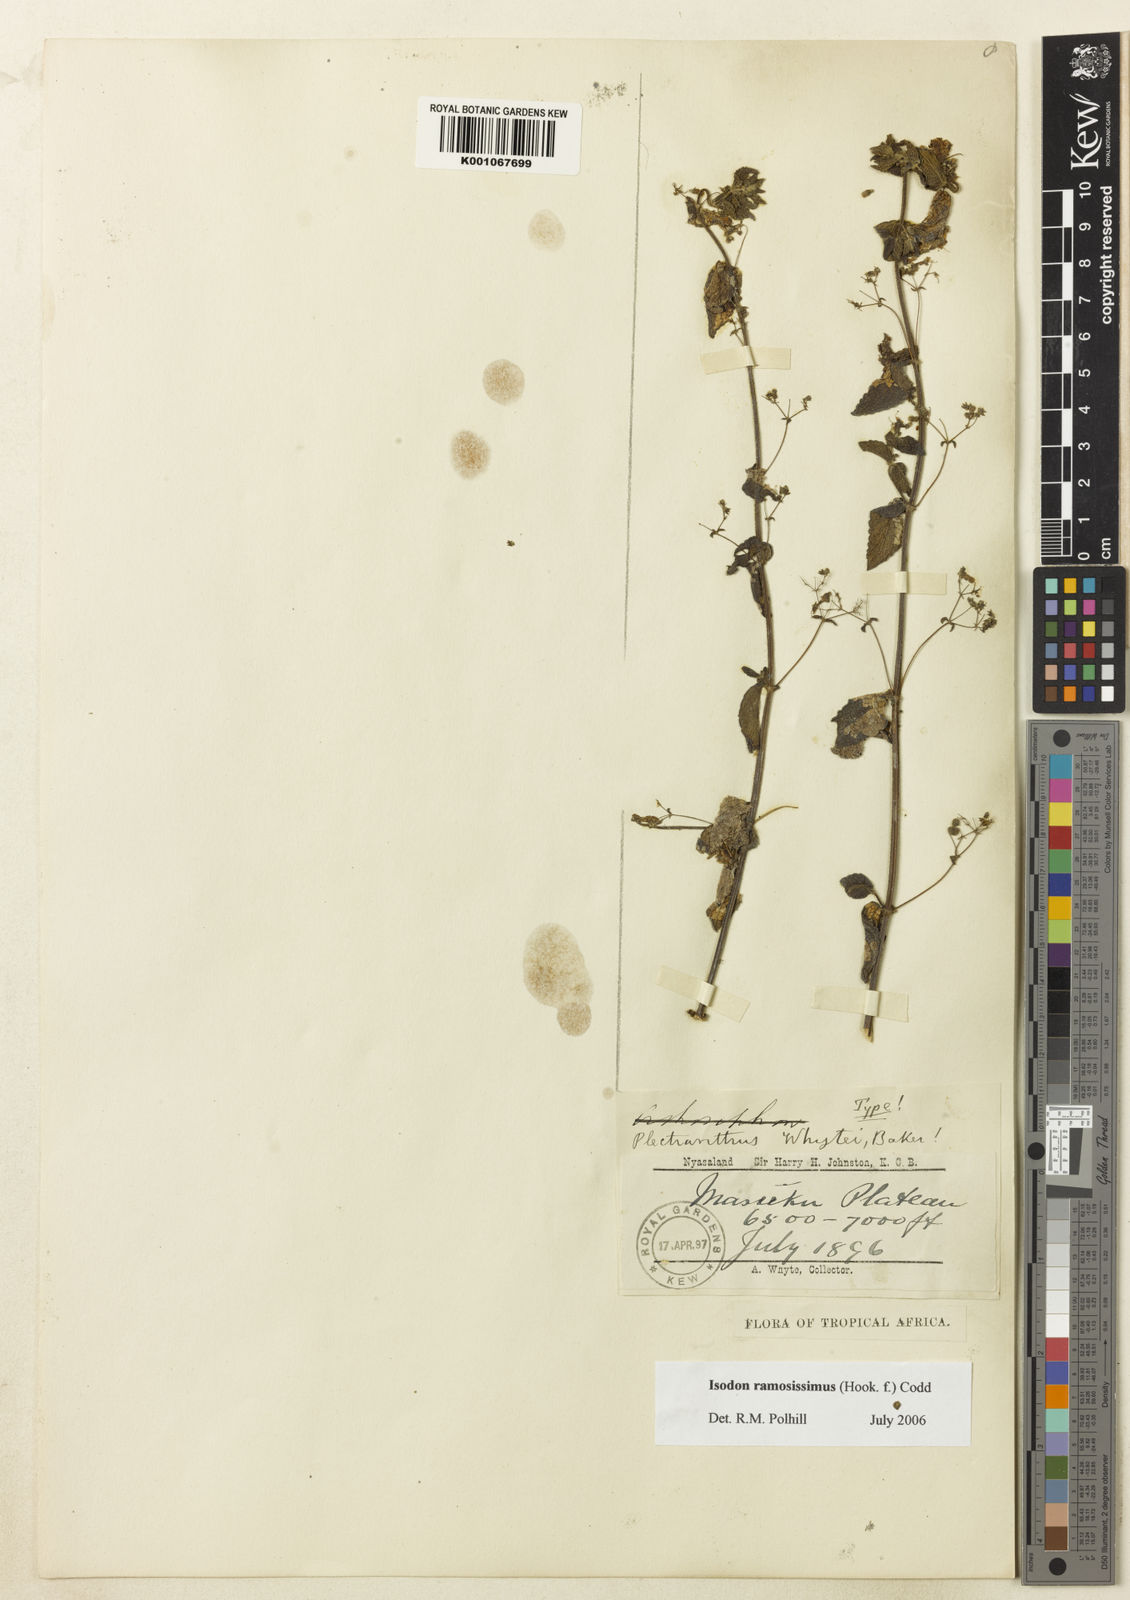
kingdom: Plantae
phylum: Tracheophyta
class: Magnoliopsida
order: Lamiales
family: Lamiaceae
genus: Isodon
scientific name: Isodon ramosissimus
